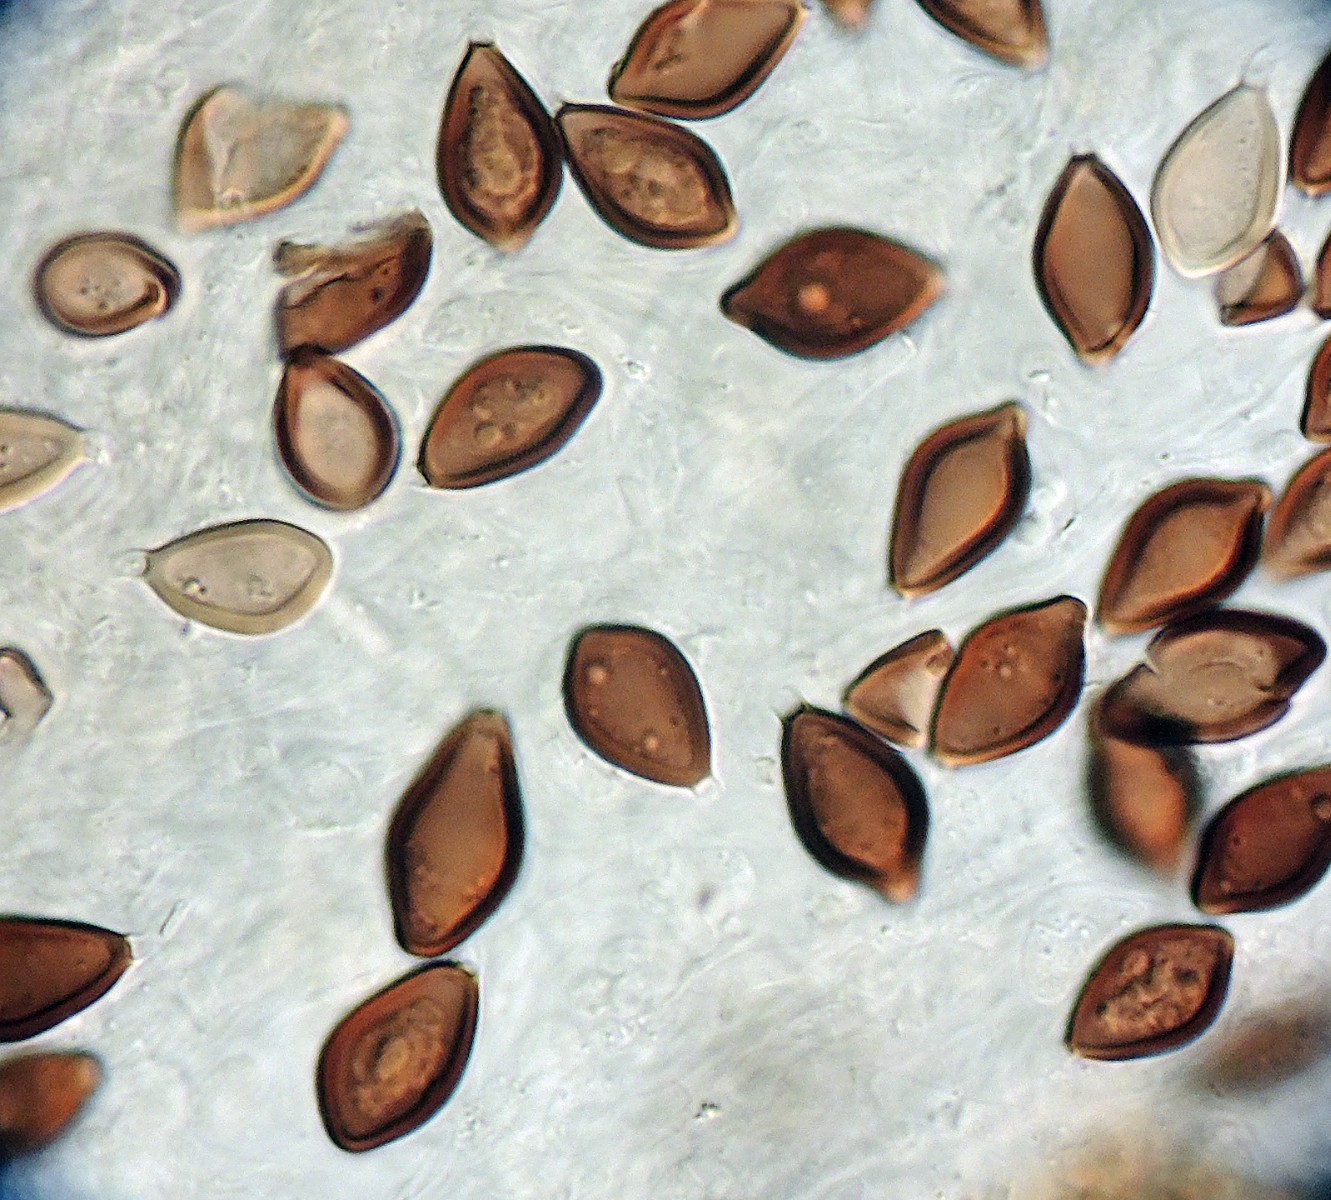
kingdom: Fungi
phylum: Basidiomycota
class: Agaricomycetes
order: Boletales
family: Paxillaceae
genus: Melanogaster
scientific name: Melanogaster ambiguus
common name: lille slimtrøffel
